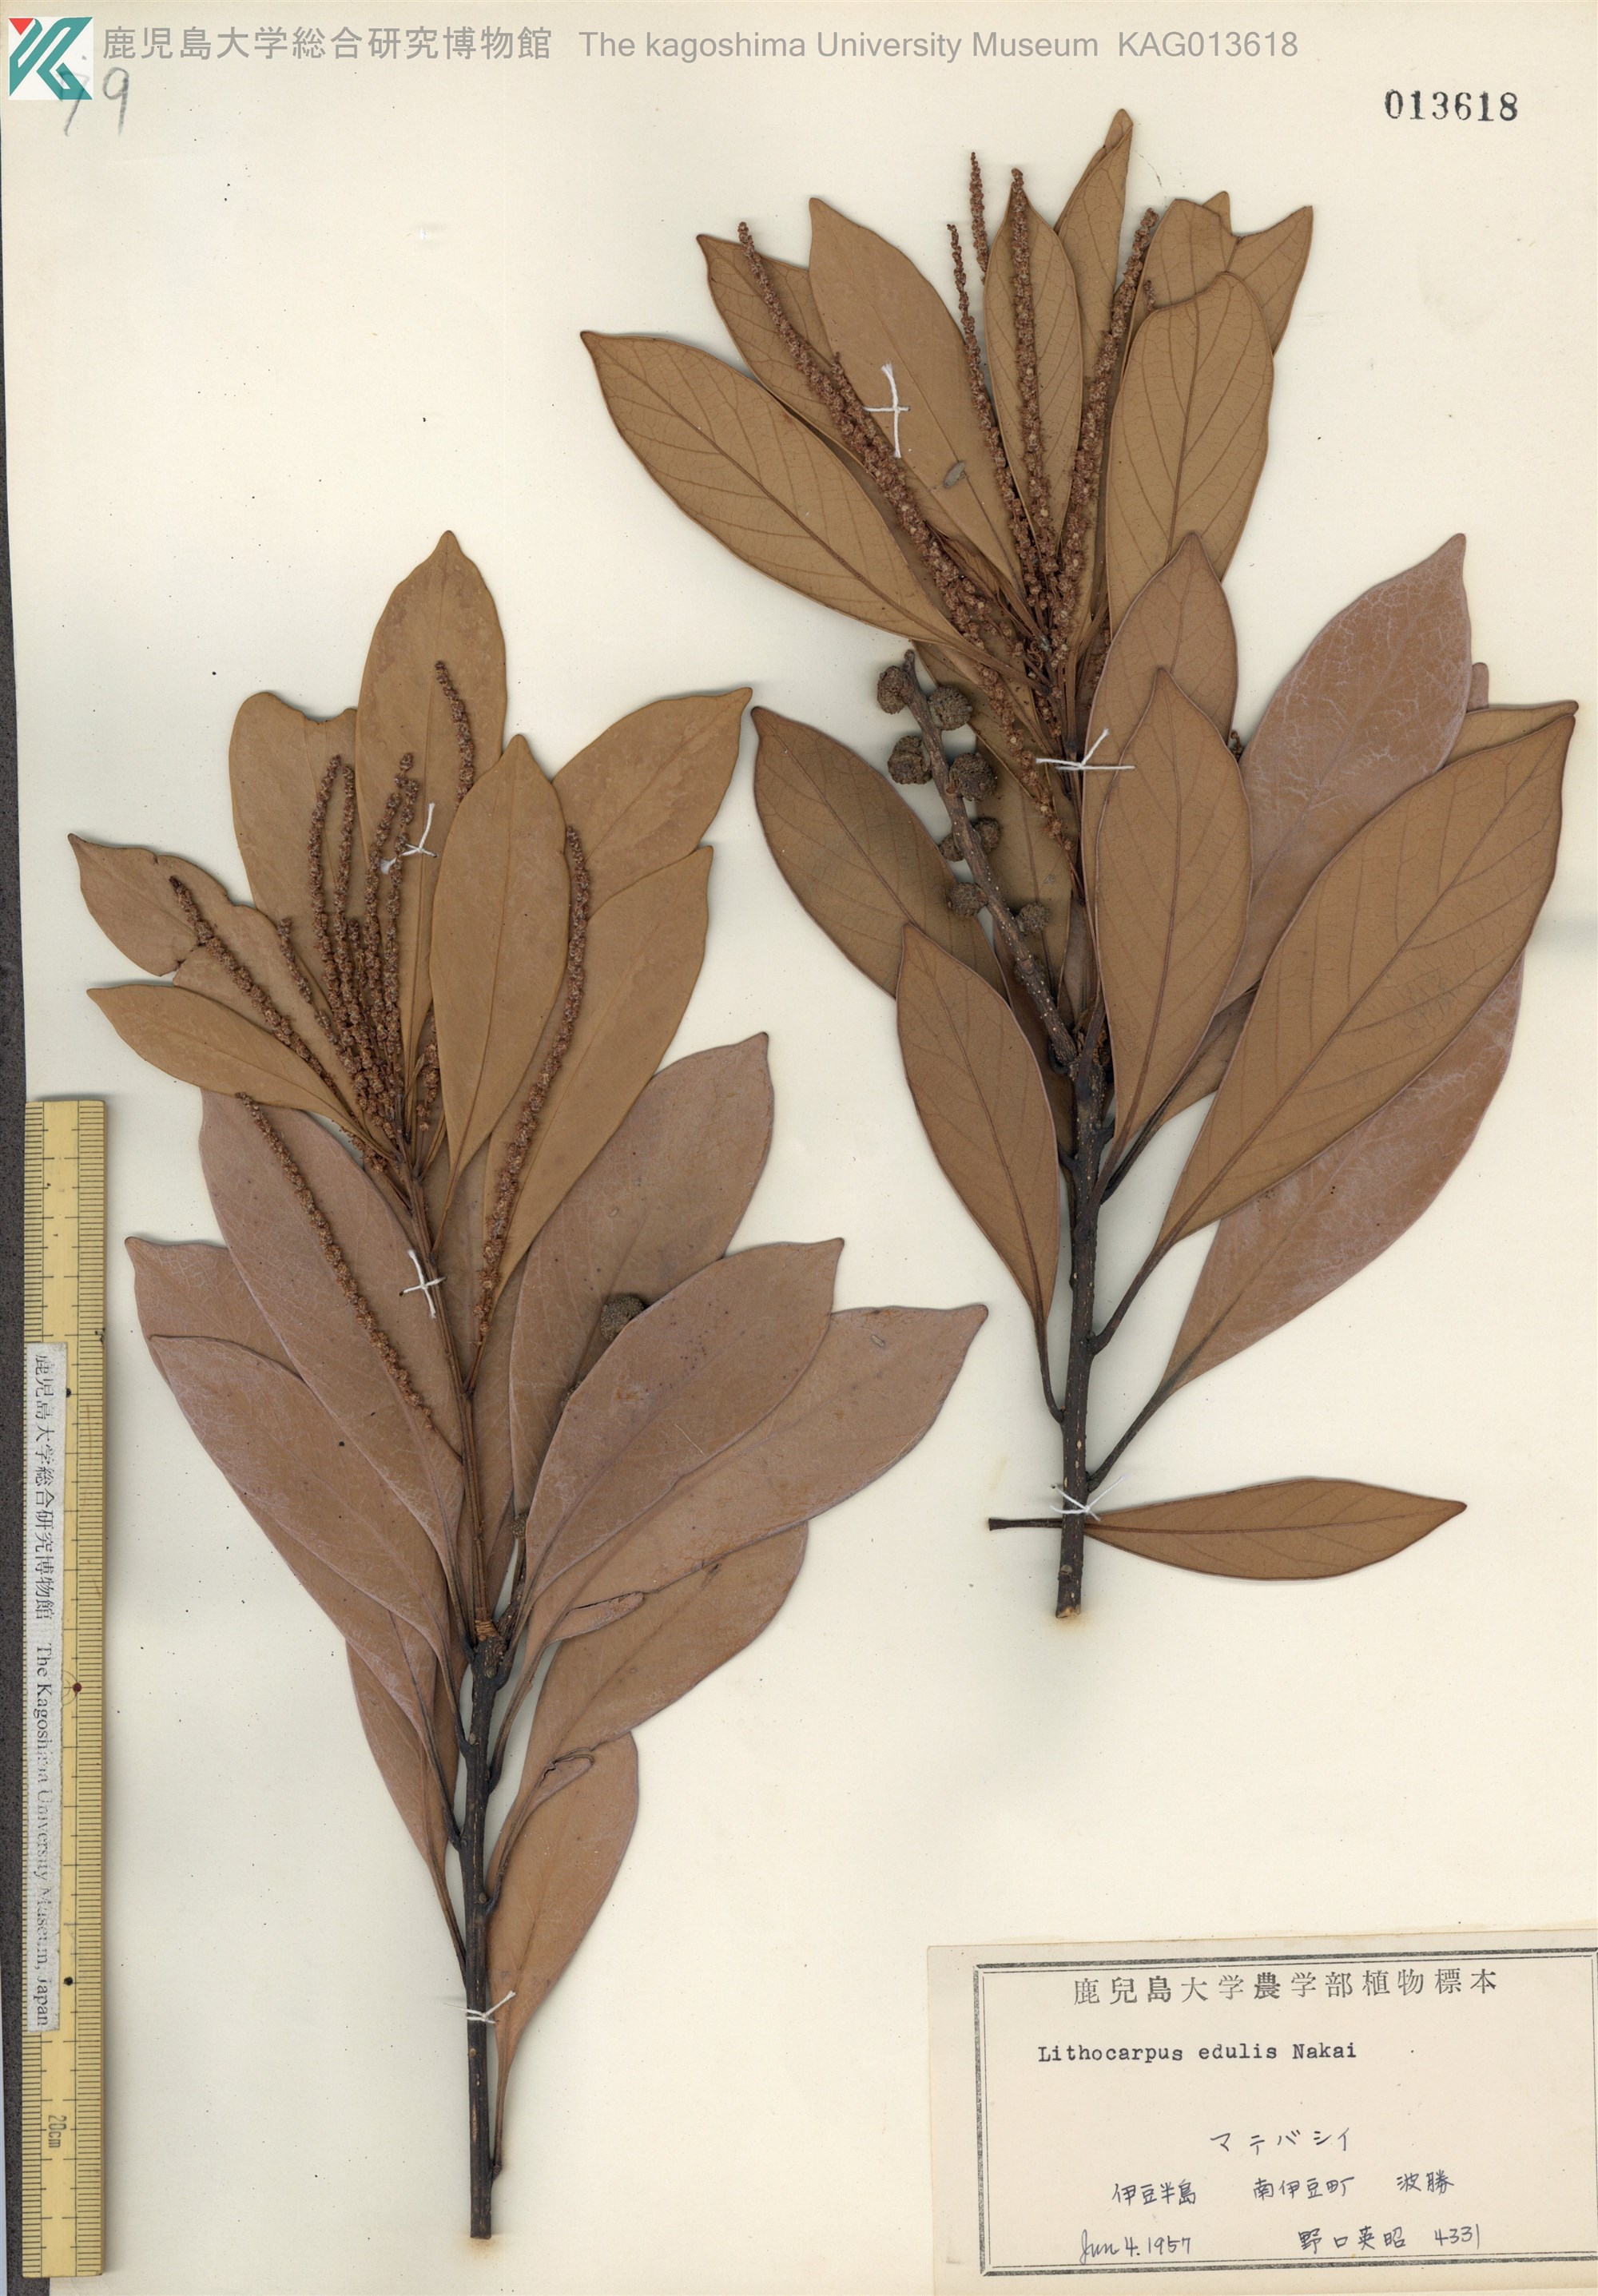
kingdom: Plantae
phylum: Tracheophyta
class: Magnoliopsida
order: Fagales
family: Fagaceae
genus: Lithocarpus
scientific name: Lithocarpus edulis
